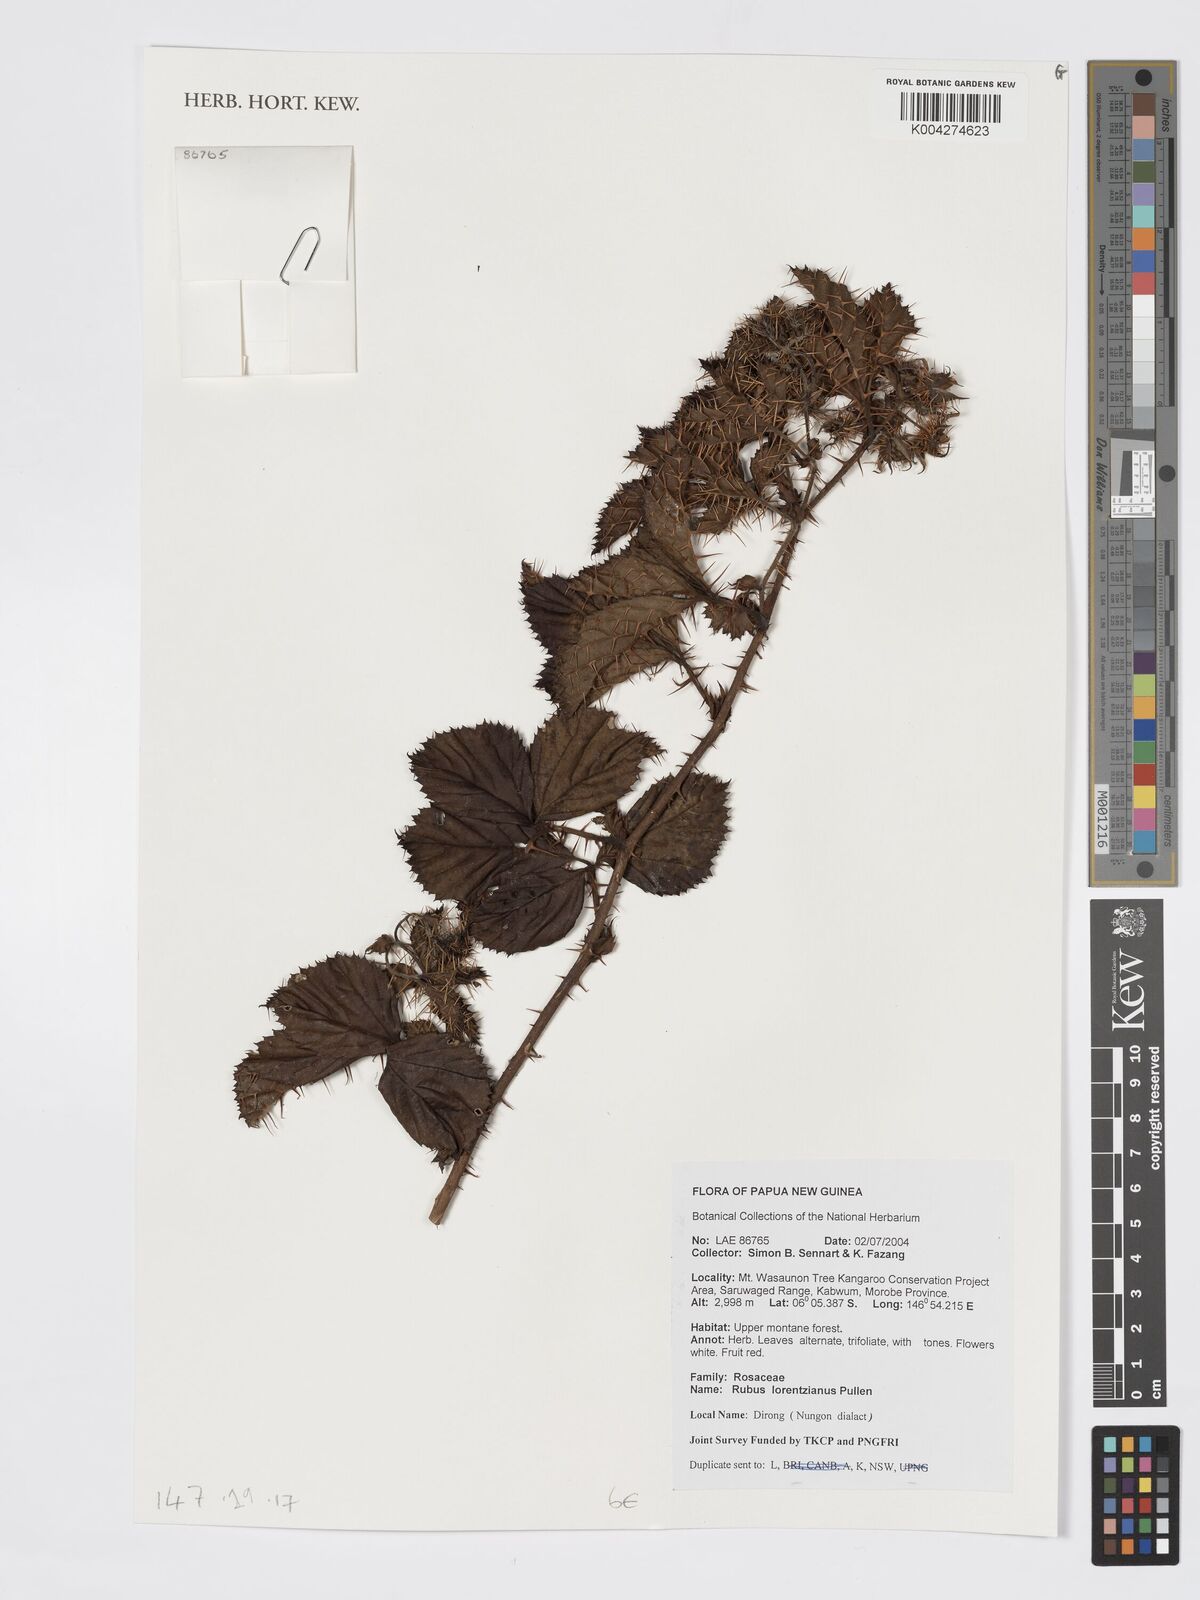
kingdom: Plantae
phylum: Tracheophyta
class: Magnoliopsida
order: Rosales
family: Rosaceae
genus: Rubus
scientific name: Rubus lorentzianus
